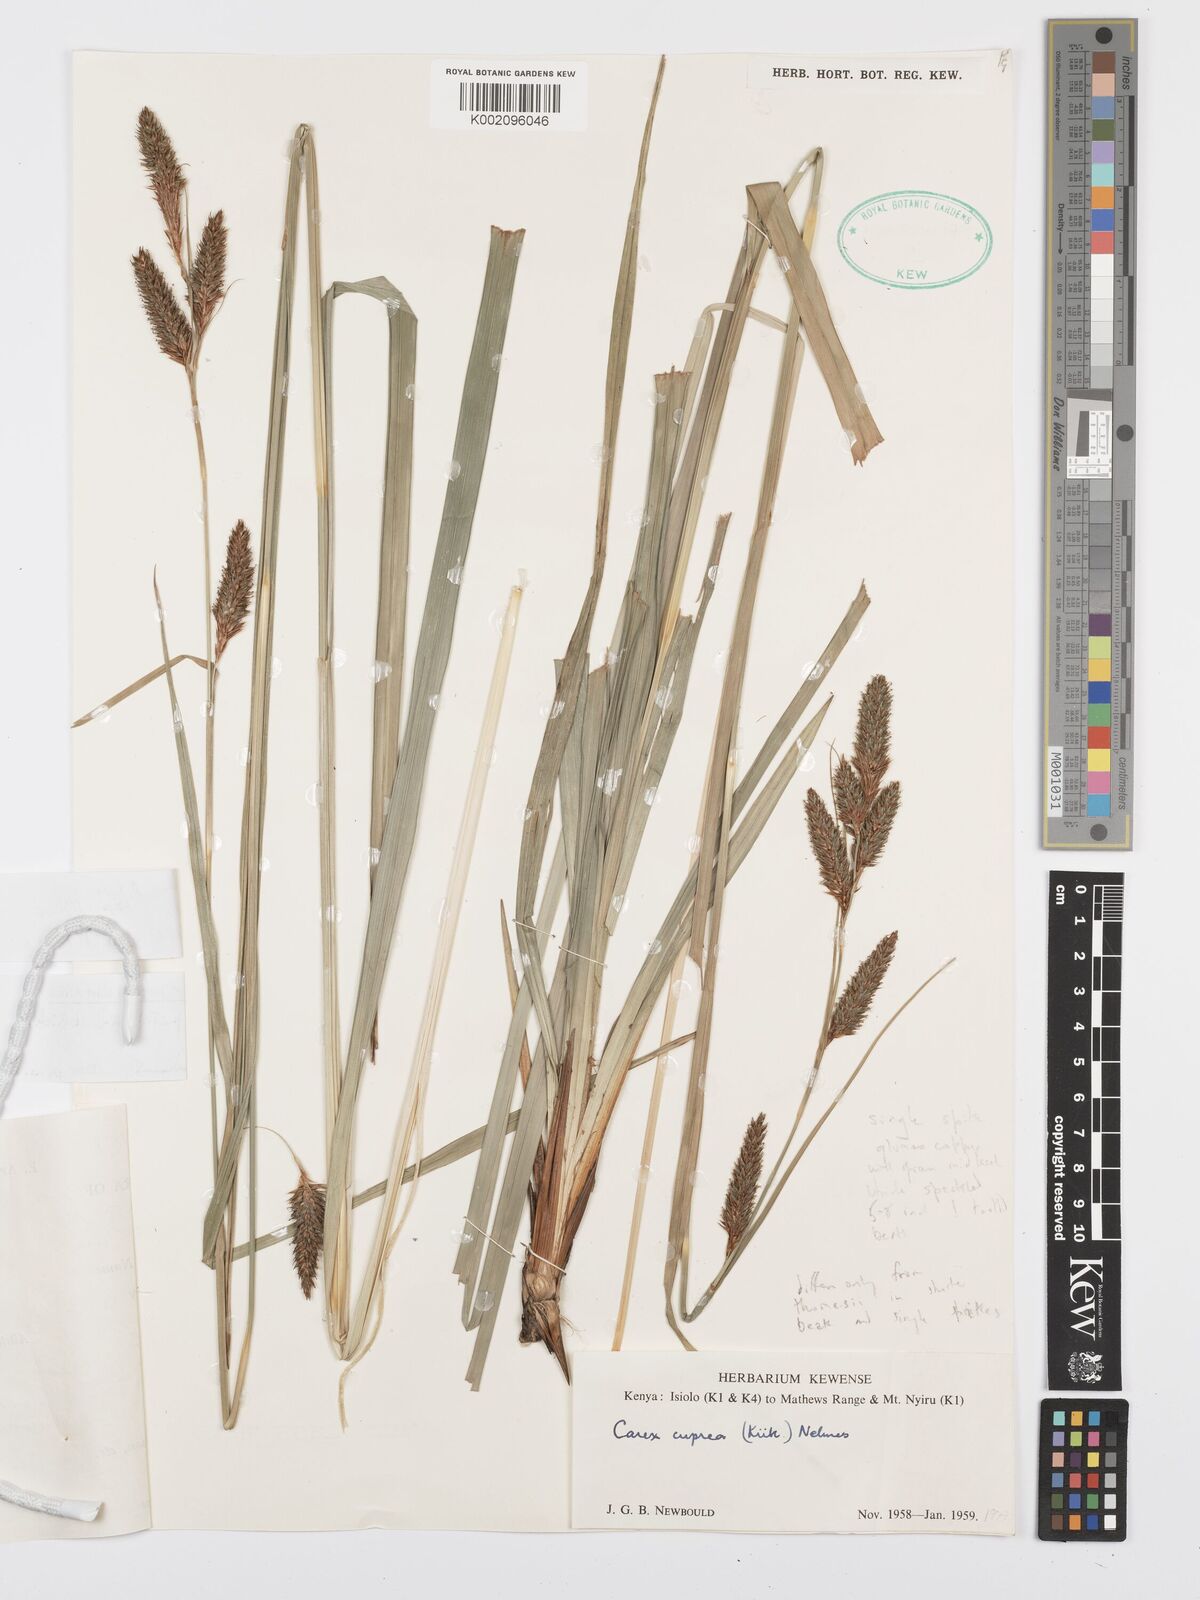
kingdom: Plantae
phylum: Tracheophyta
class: Liliopsida
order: Poales
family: Cyperaceae
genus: Carex
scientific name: Carex petitiana
